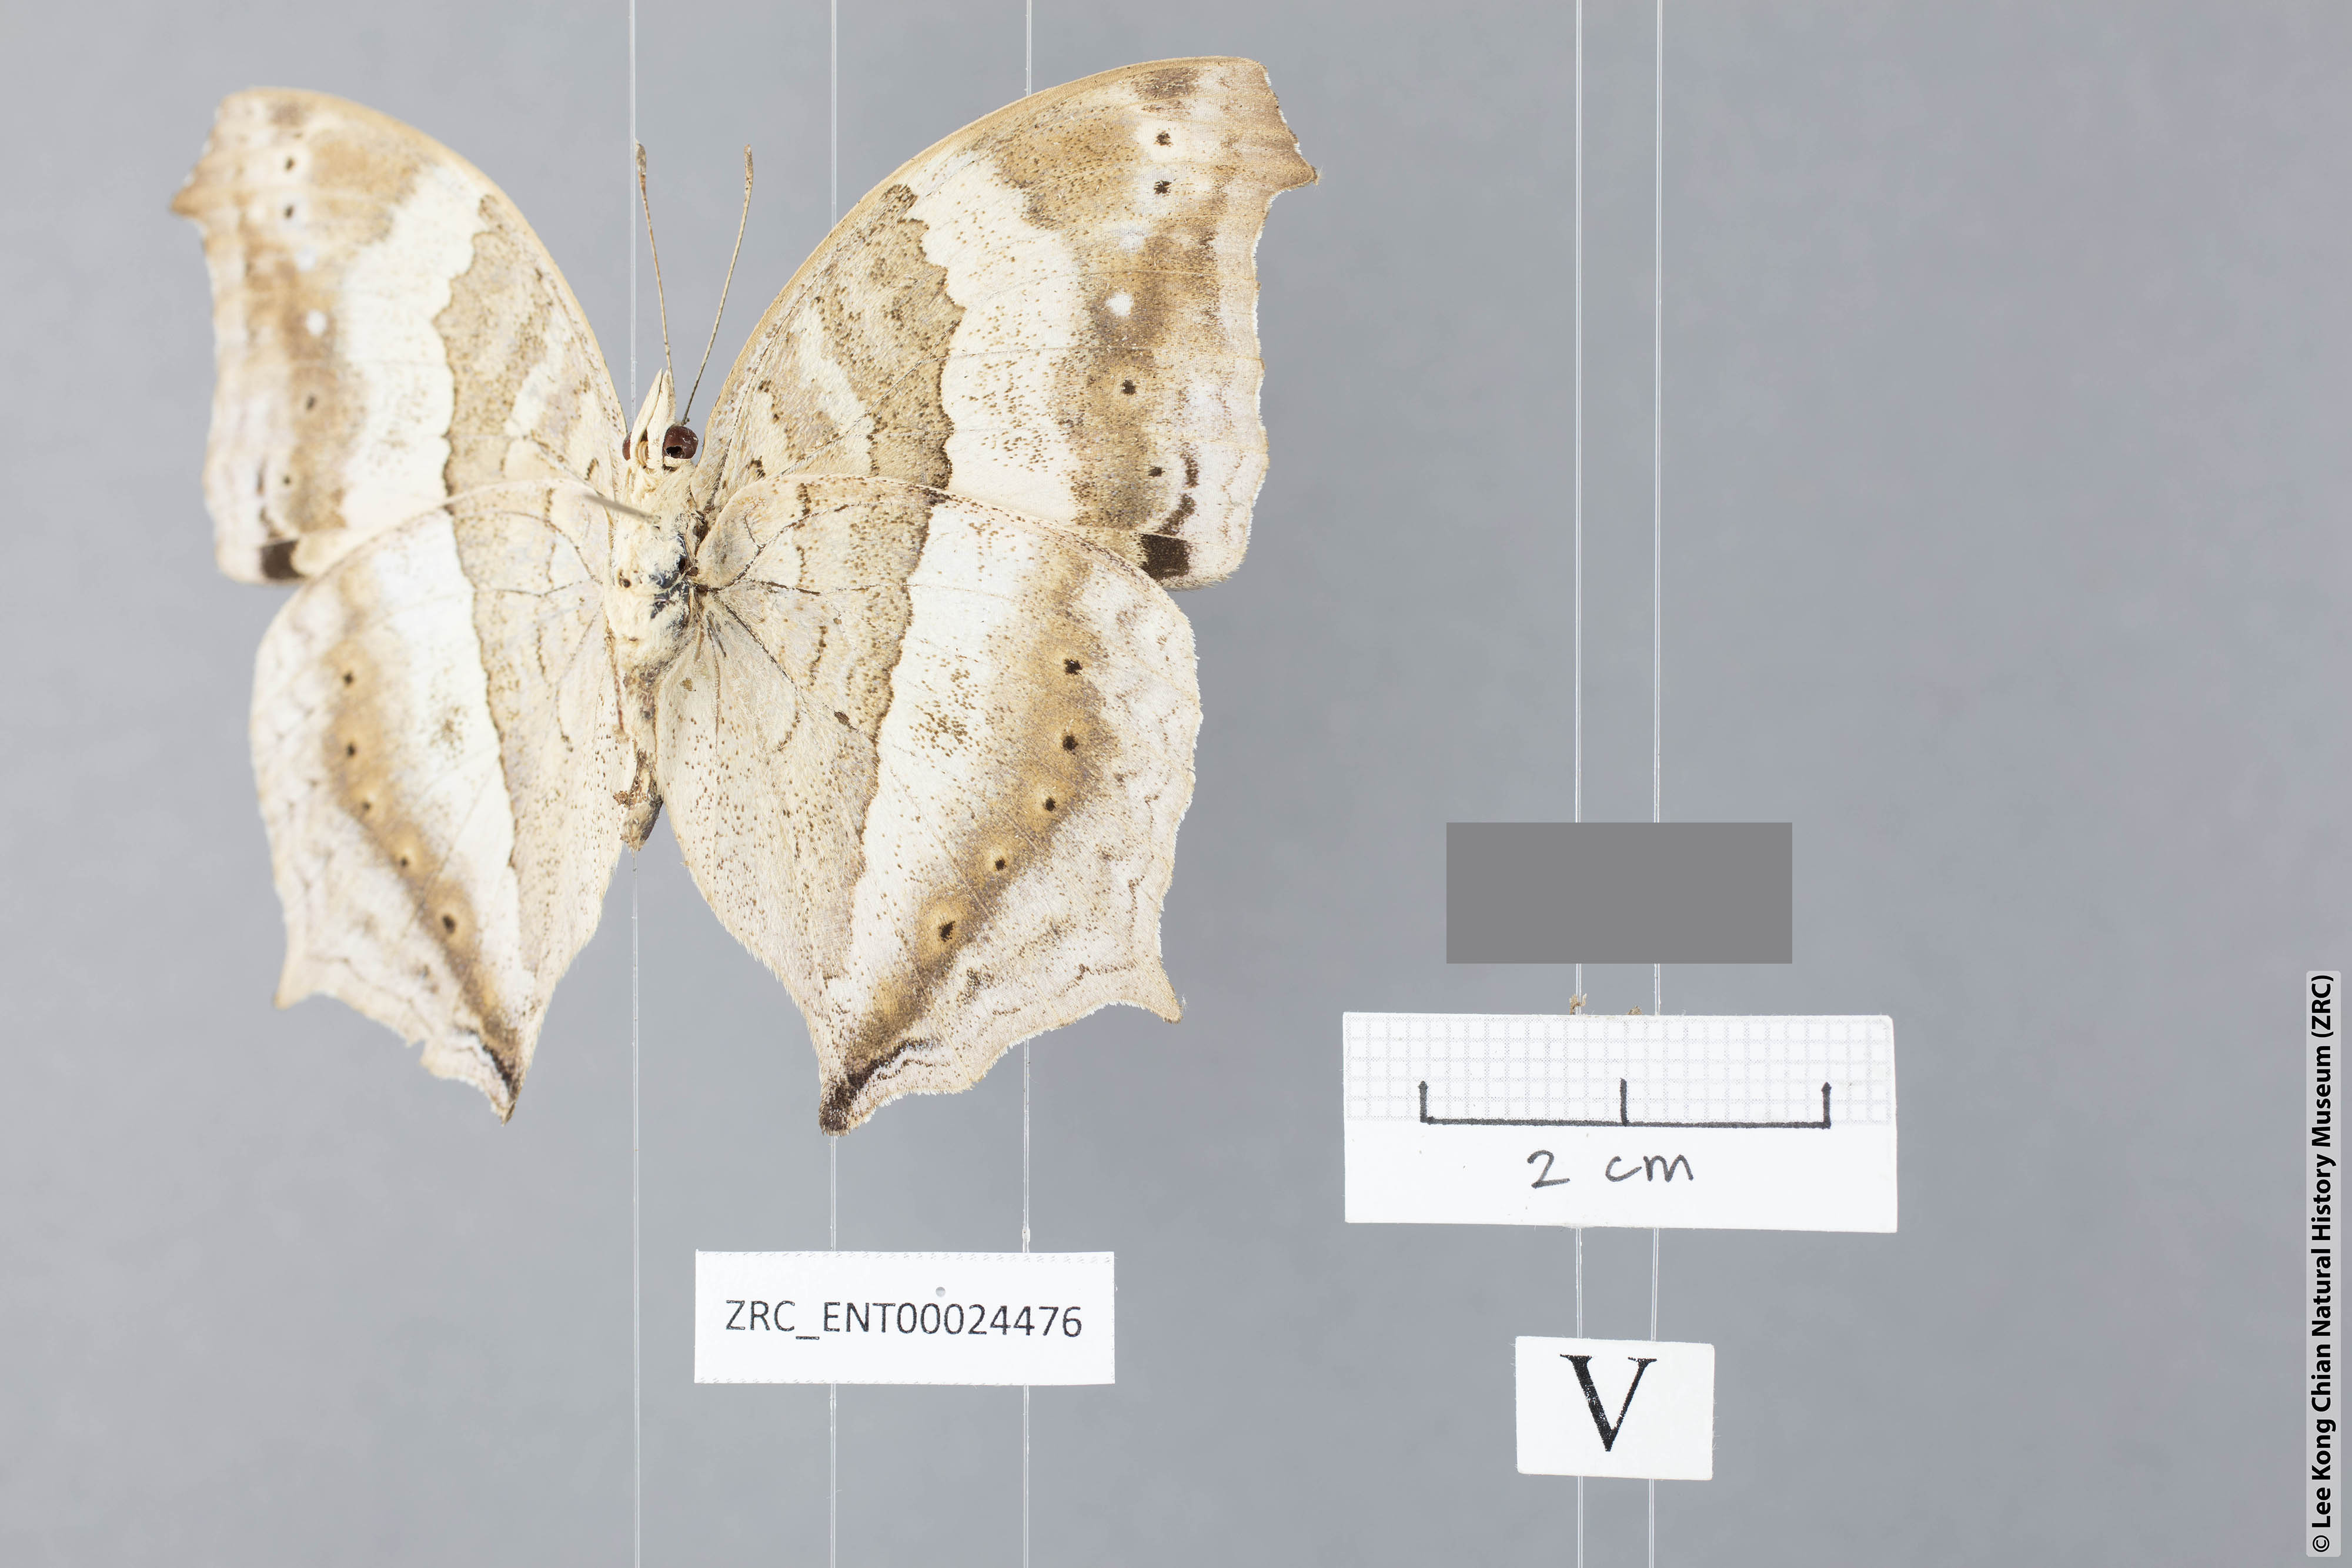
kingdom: Animalia
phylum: Arthropoda
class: Insecta
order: Lepidoptera
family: Nymphalidae
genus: Yoma
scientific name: Yoma sabina
